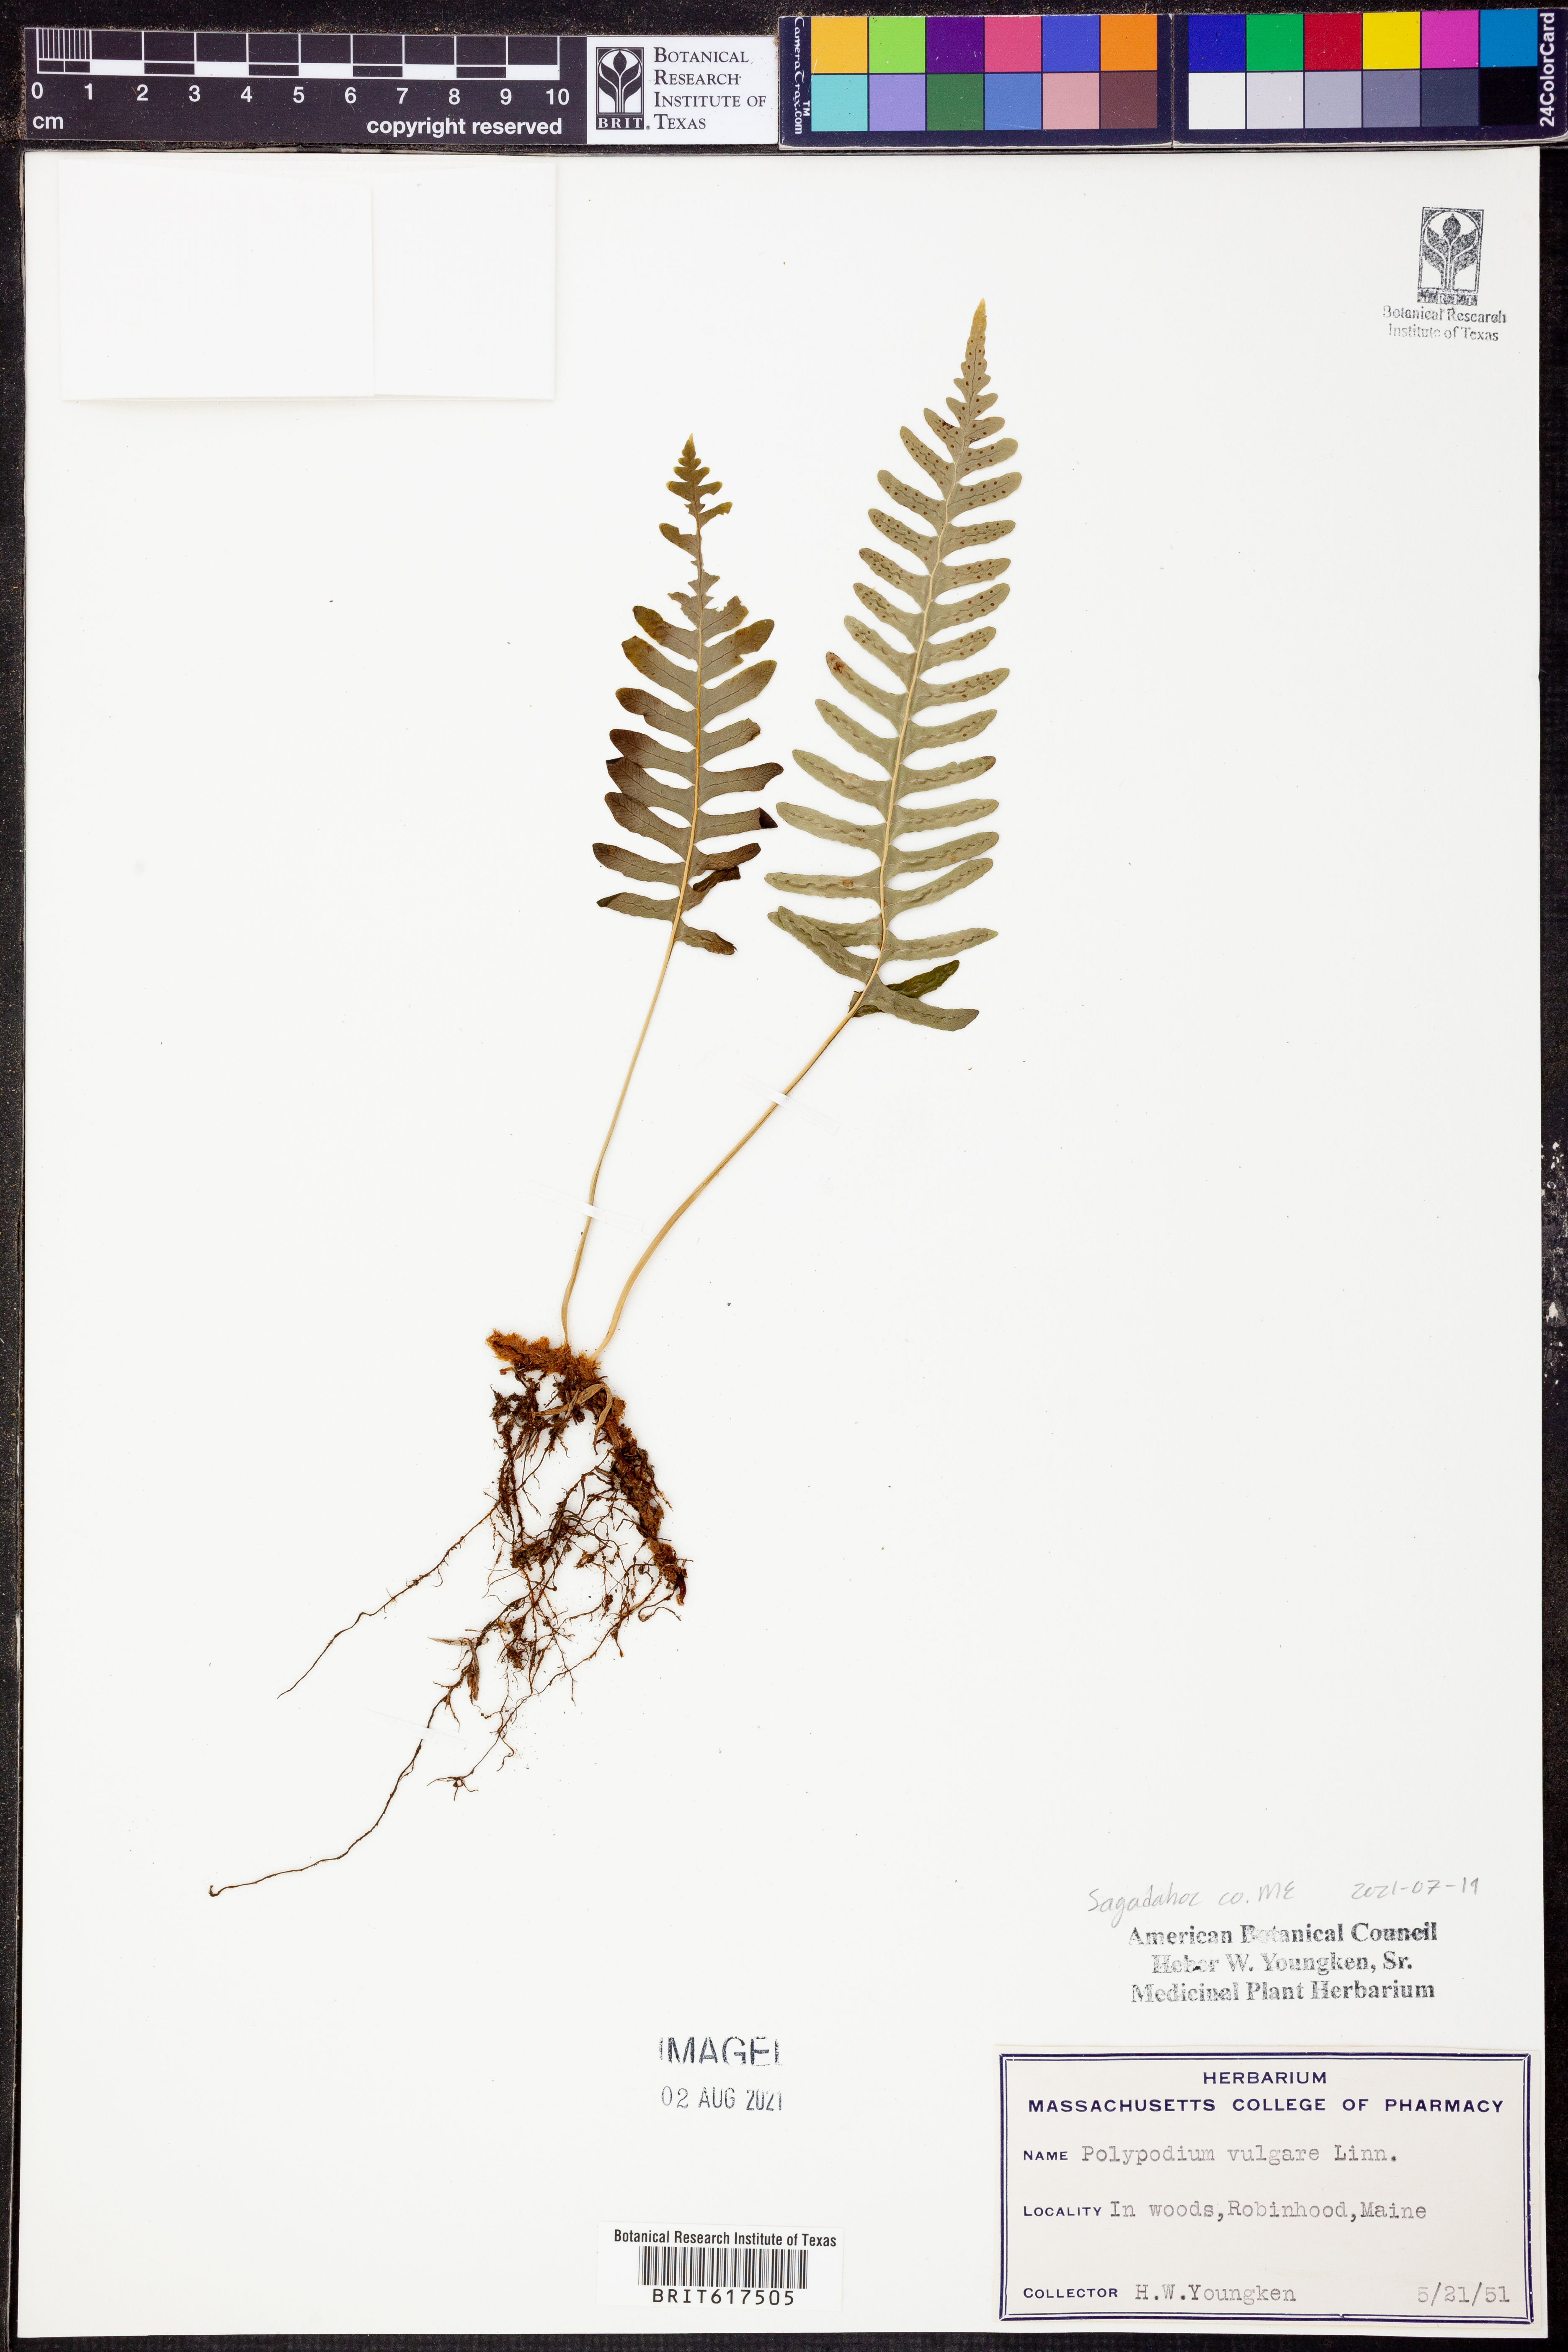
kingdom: Plantae
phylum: Tracheophyta
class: Polypodiopsida
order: Polypodiales
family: Polypodiaceae
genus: Polypodium
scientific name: Polypodium vulgare
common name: Common polypody
